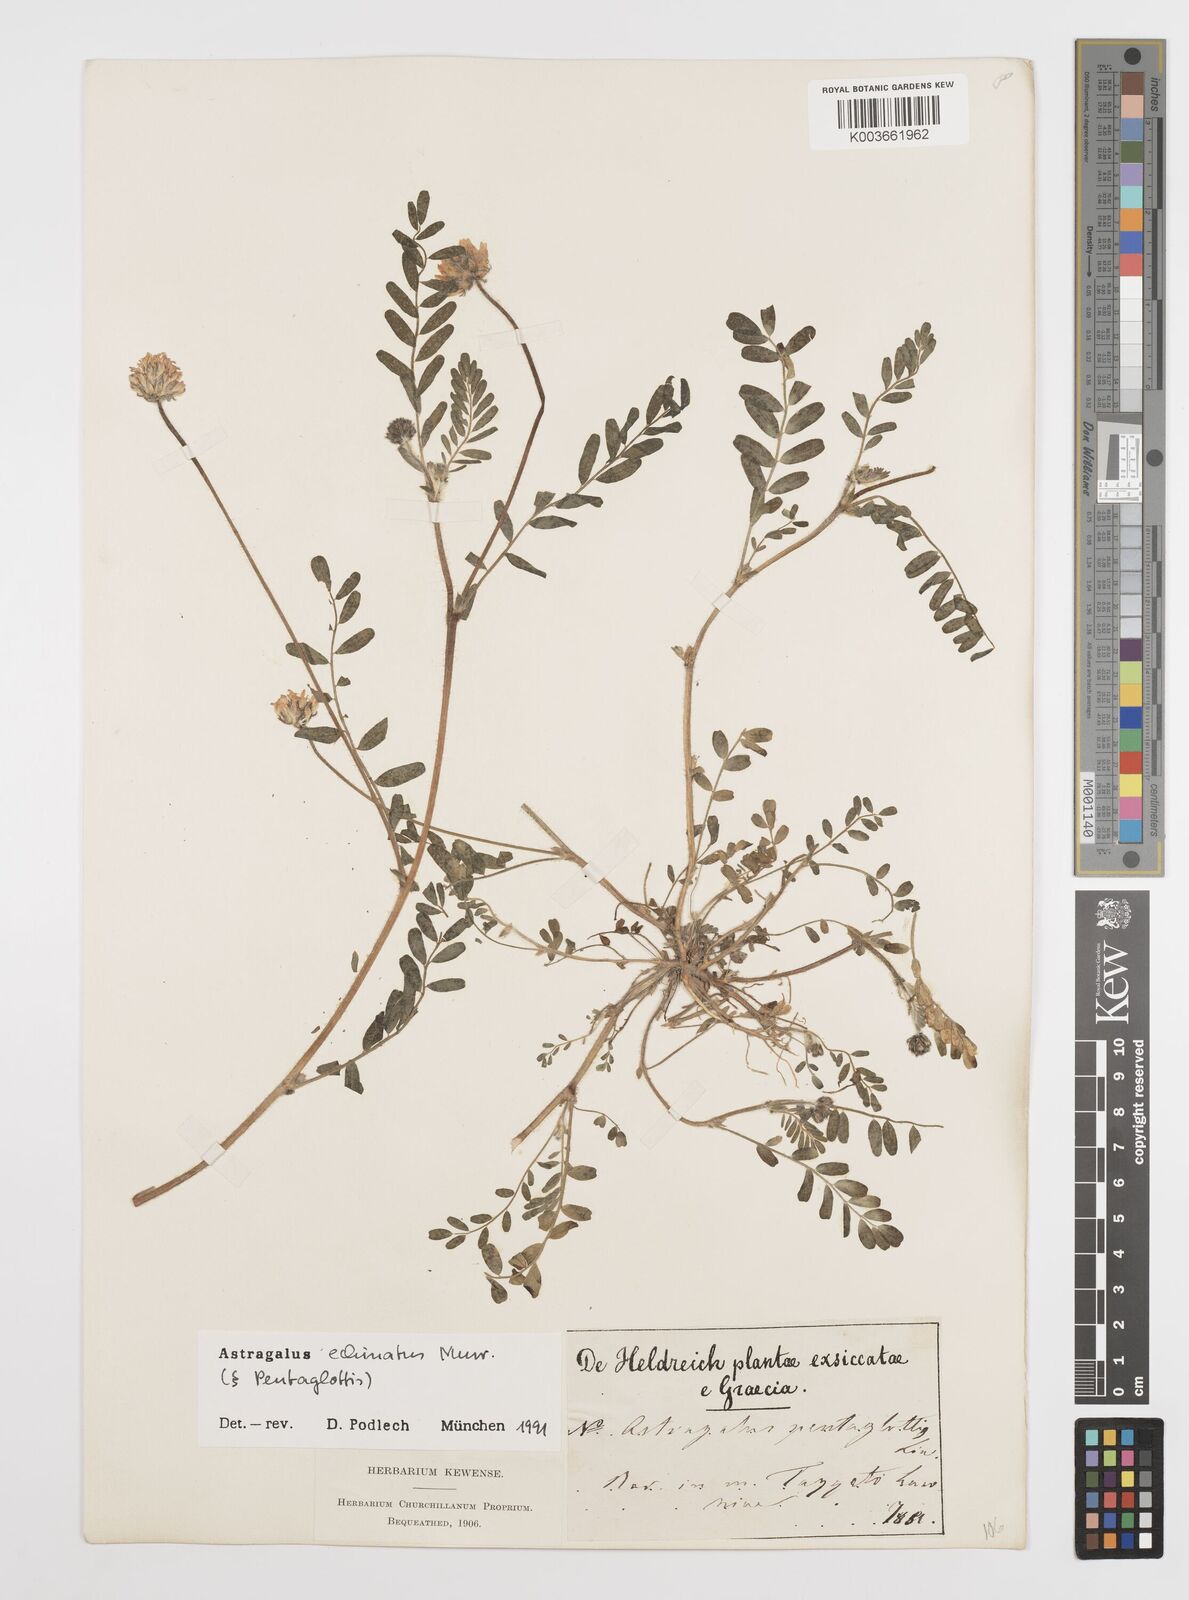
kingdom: Plantae
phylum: Tracheophyta
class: Magnoliopsida
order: Fabales
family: Fabaceae
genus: Astragalus
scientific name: Astragalus echinatus
